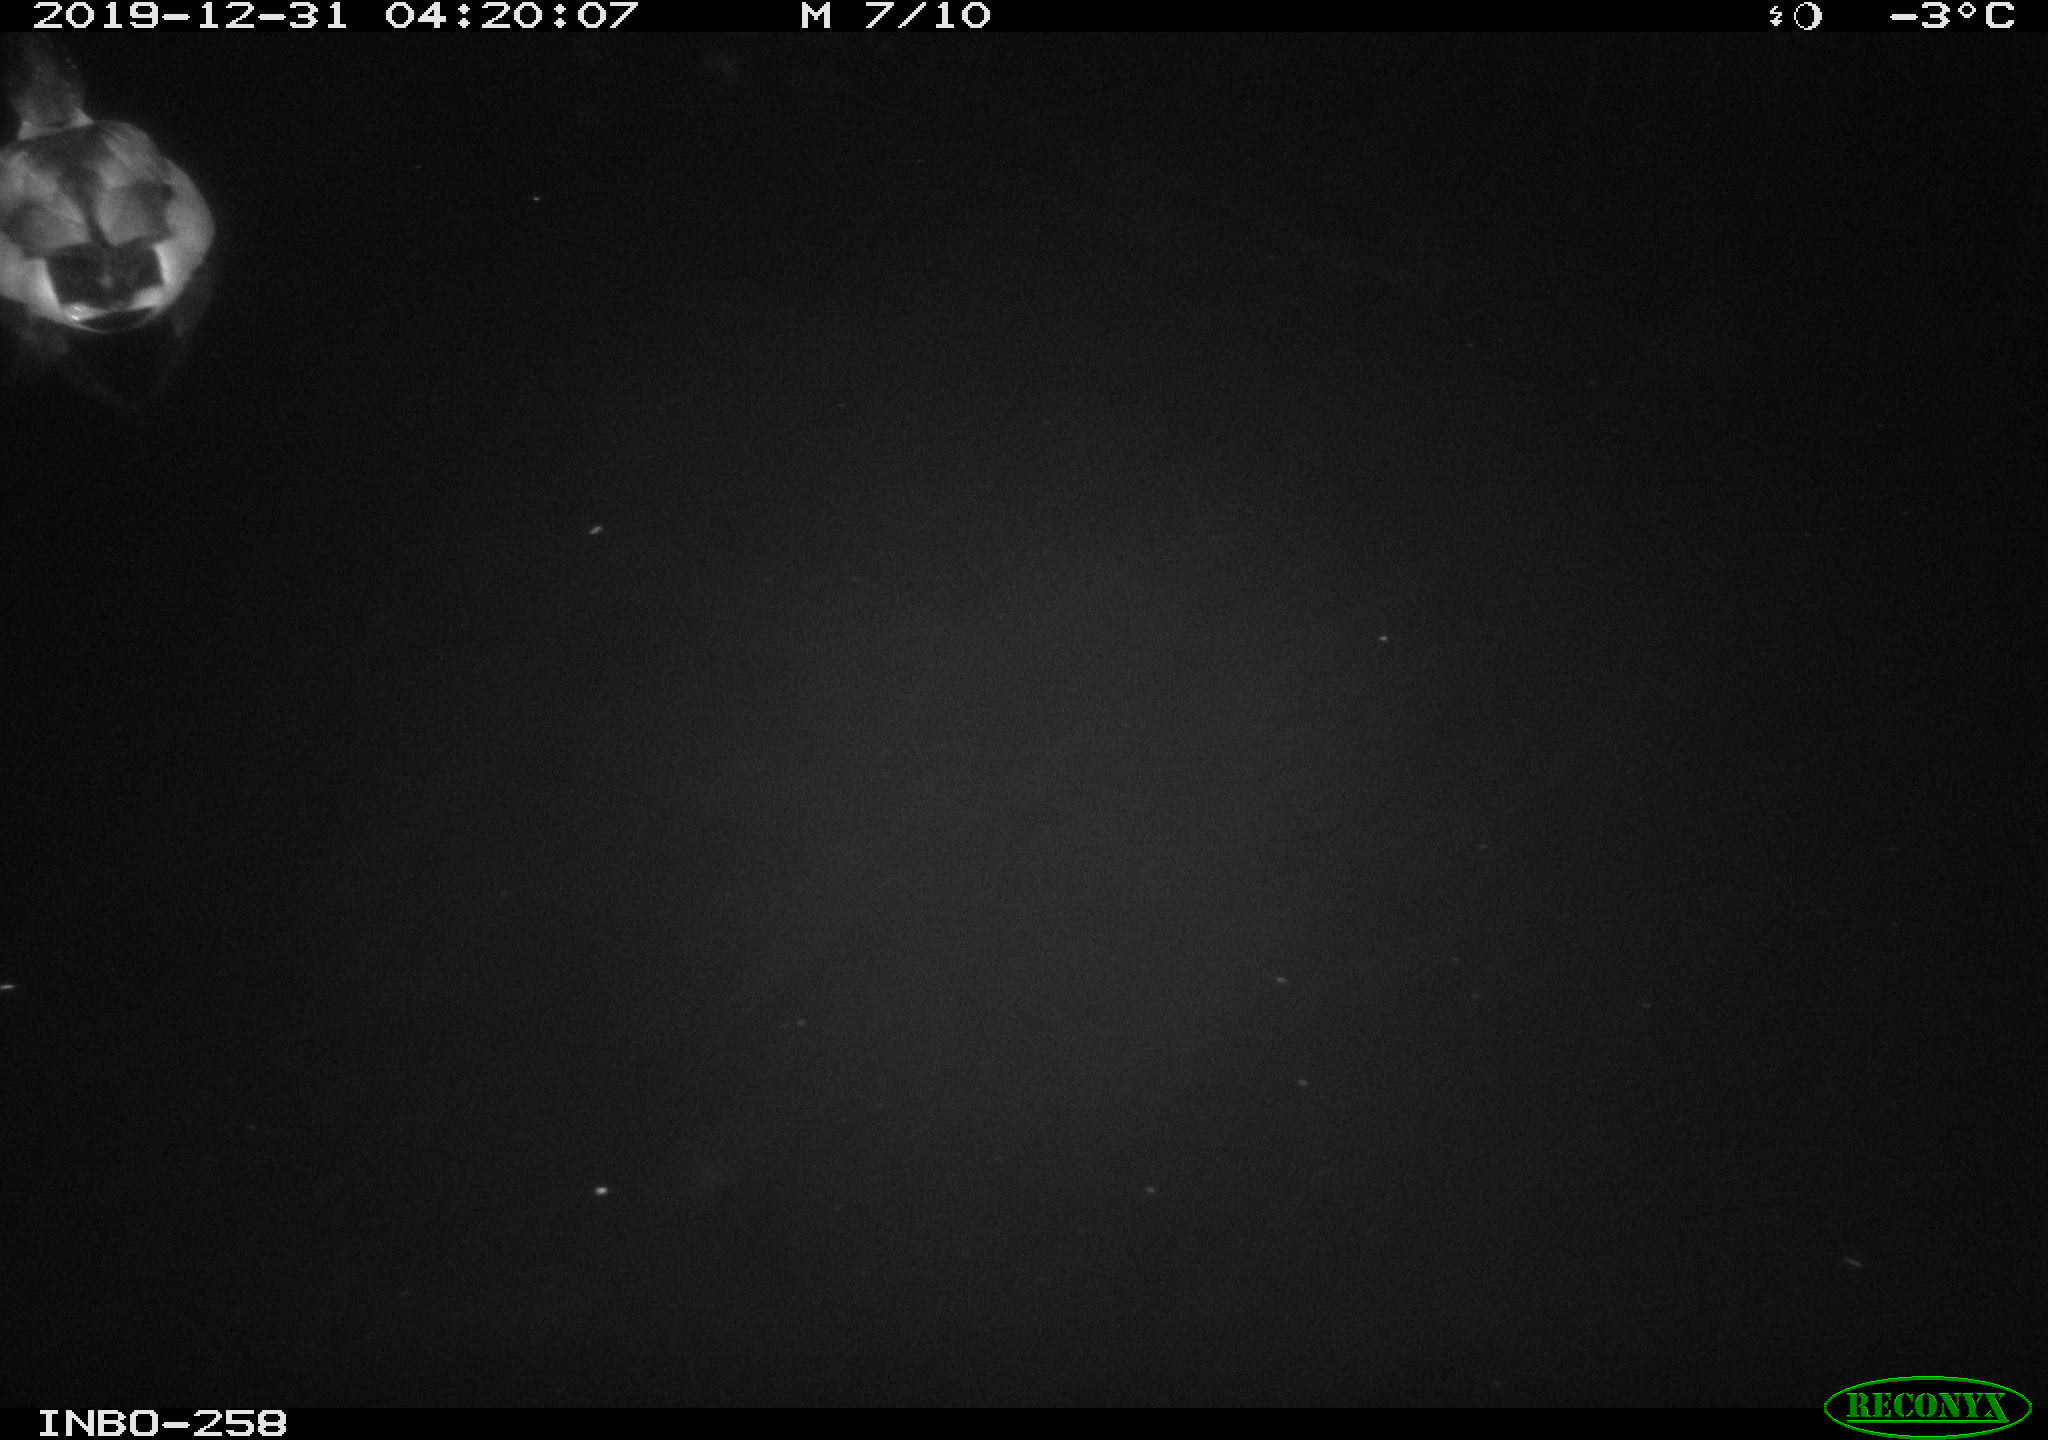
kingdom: Animalia
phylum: Chordata
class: Aves
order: Anseriformes
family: Anatidae
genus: Anas
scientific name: Anas platyrhynchos
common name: Mallard
